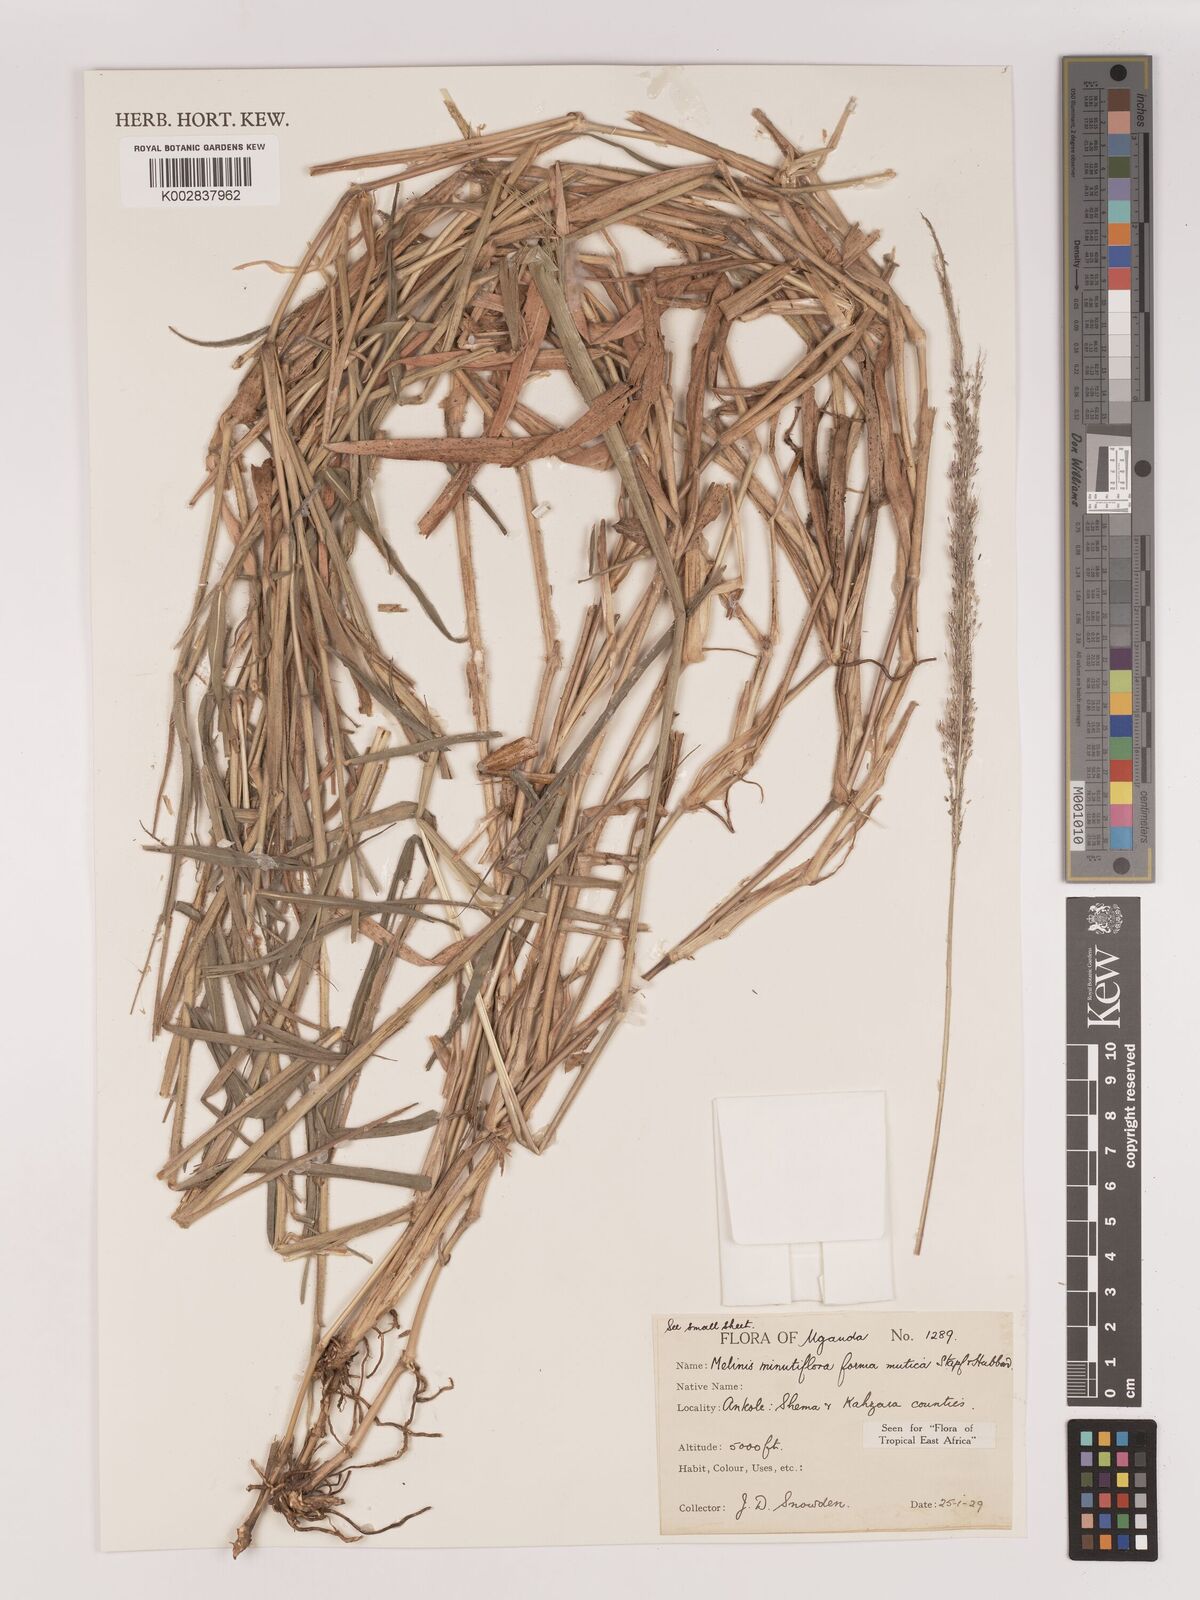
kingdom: Plantae
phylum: Tracheophyta
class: Liliopsida
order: Poales
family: Poaceae
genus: Melinis
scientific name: Melinis minutiflora
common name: Molassesgrass
